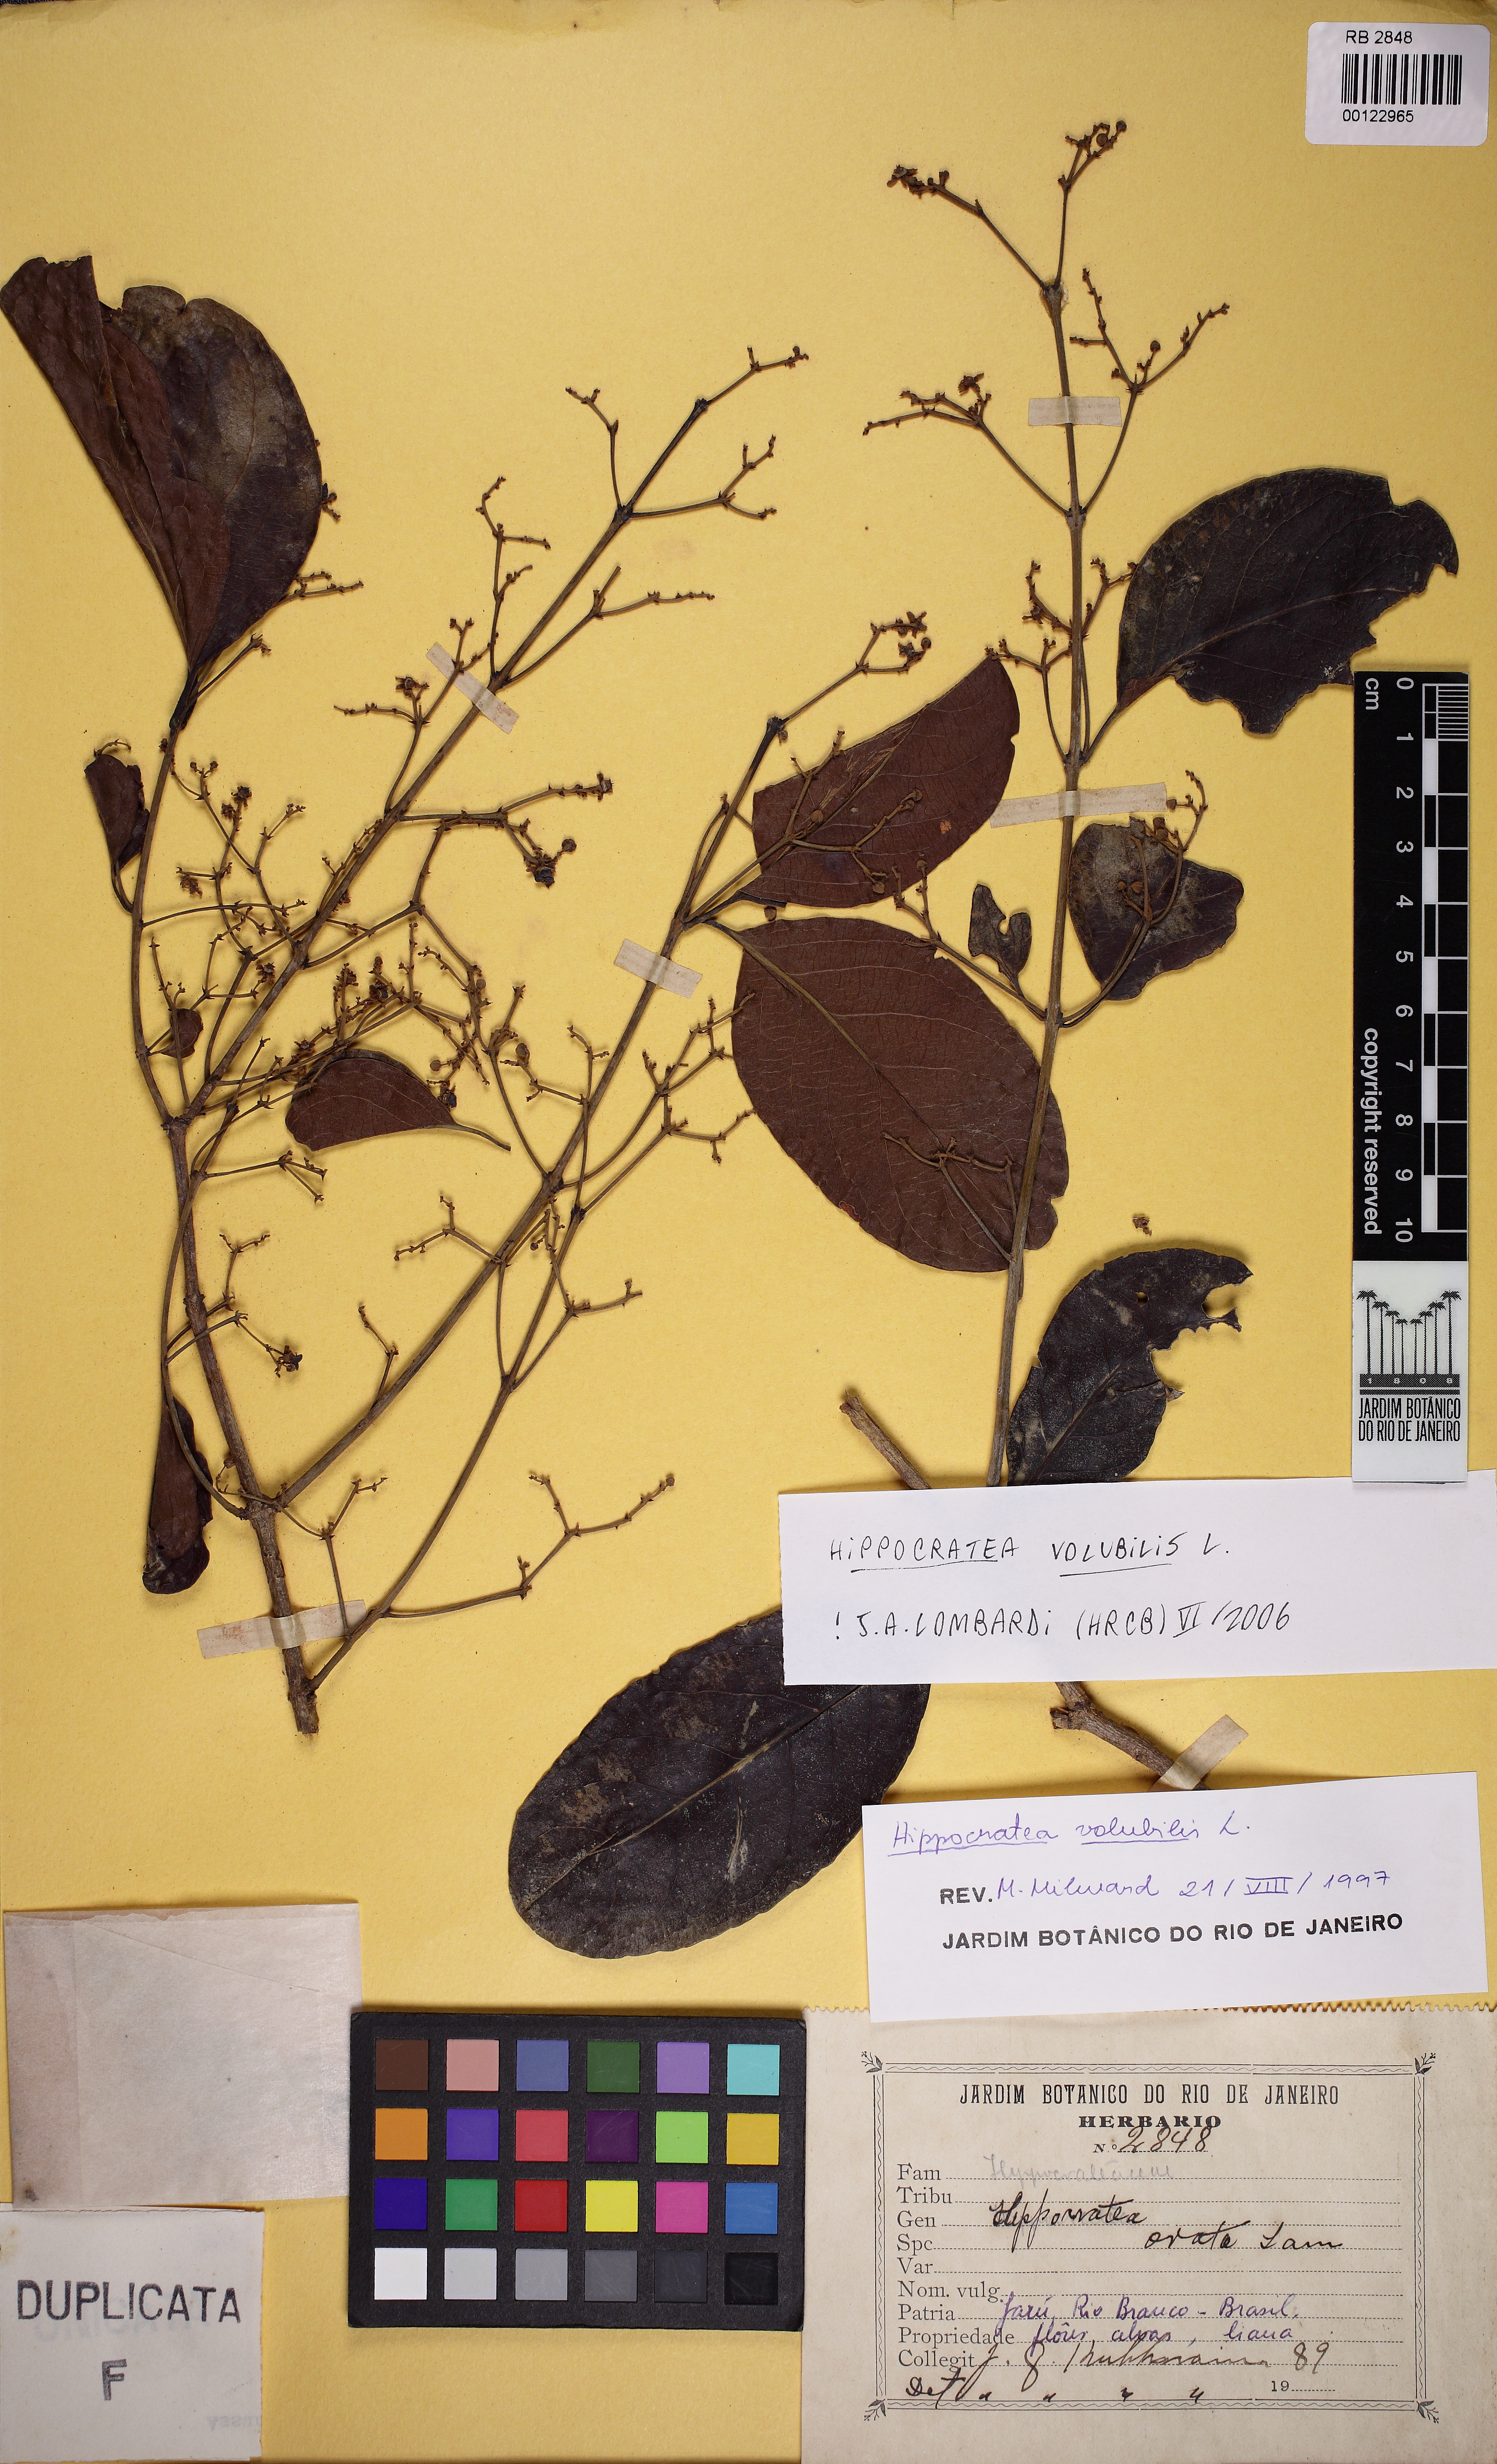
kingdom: Plantae
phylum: Tracheophyta
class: Magnoliopsida
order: Celastrales
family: Celastraceae
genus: Hippocratea
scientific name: Hippocratea volubilis
